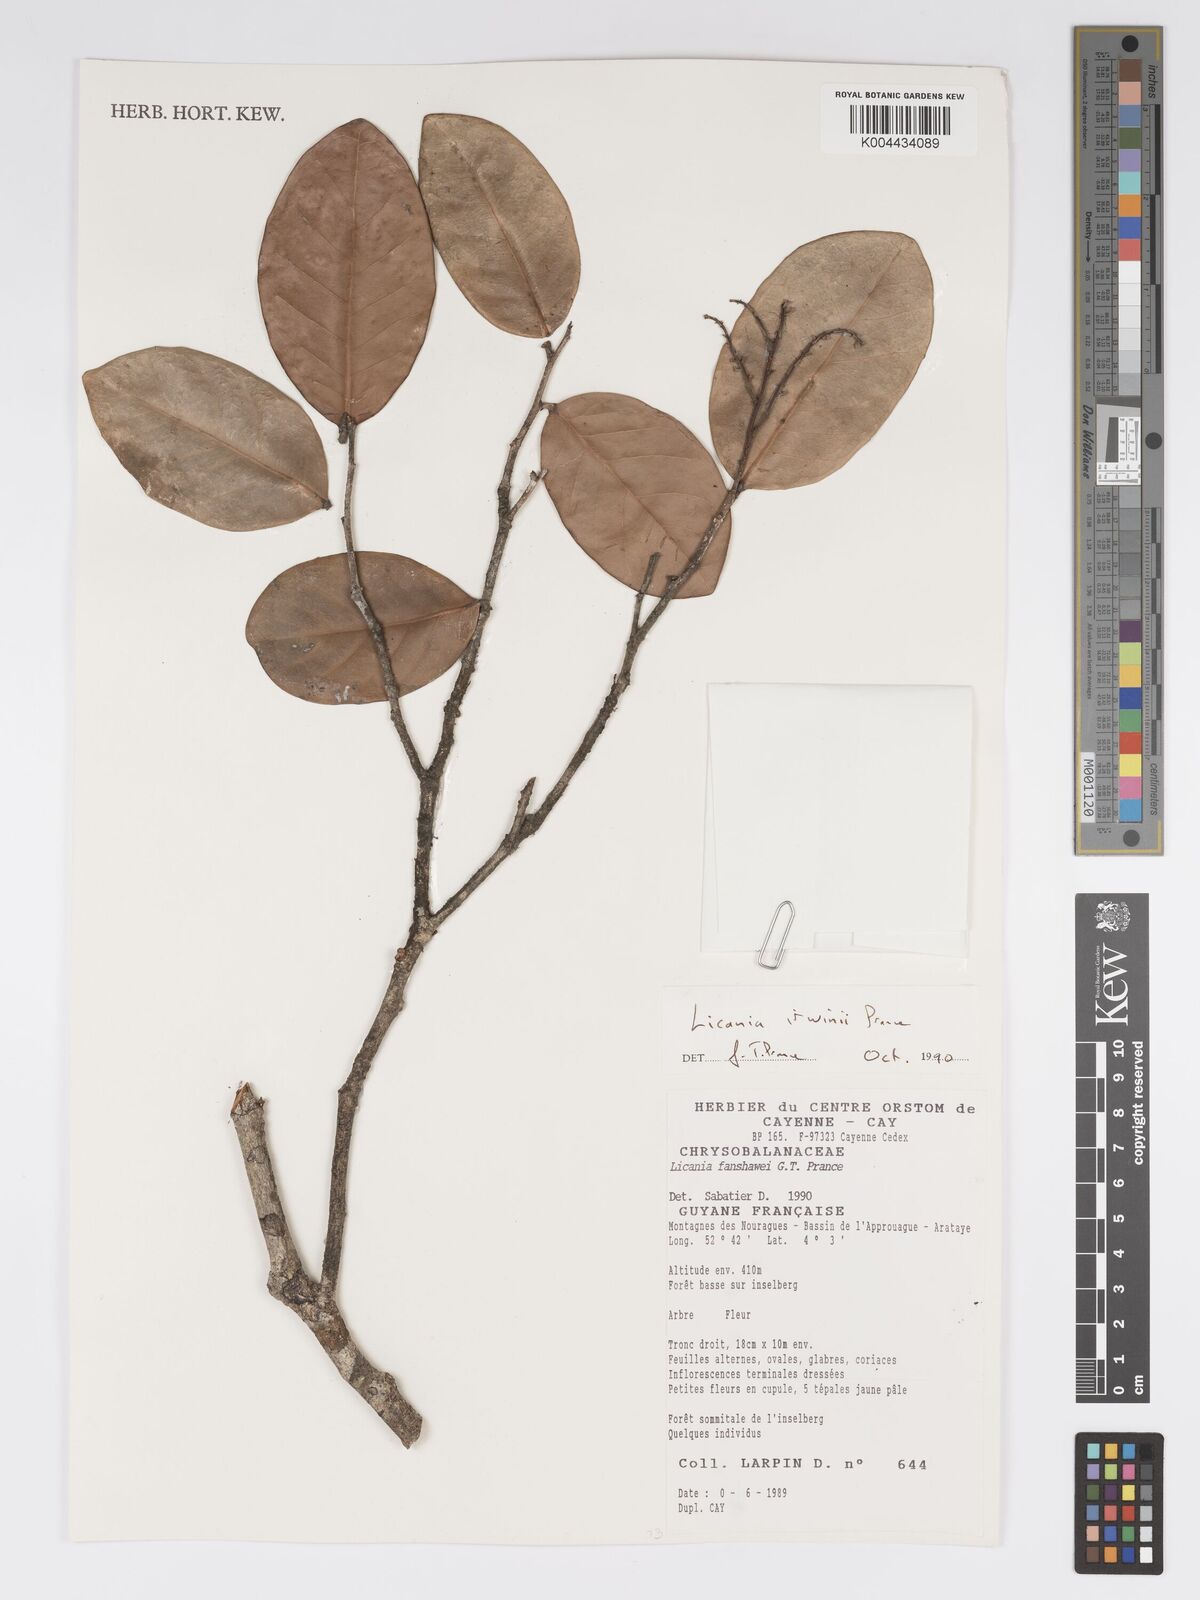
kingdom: Plantae
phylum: Tracheophyta
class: Magnoliopsida
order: Malpighiales
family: Chrysobalanaceae
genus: Licania
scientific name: Licania irwinii
